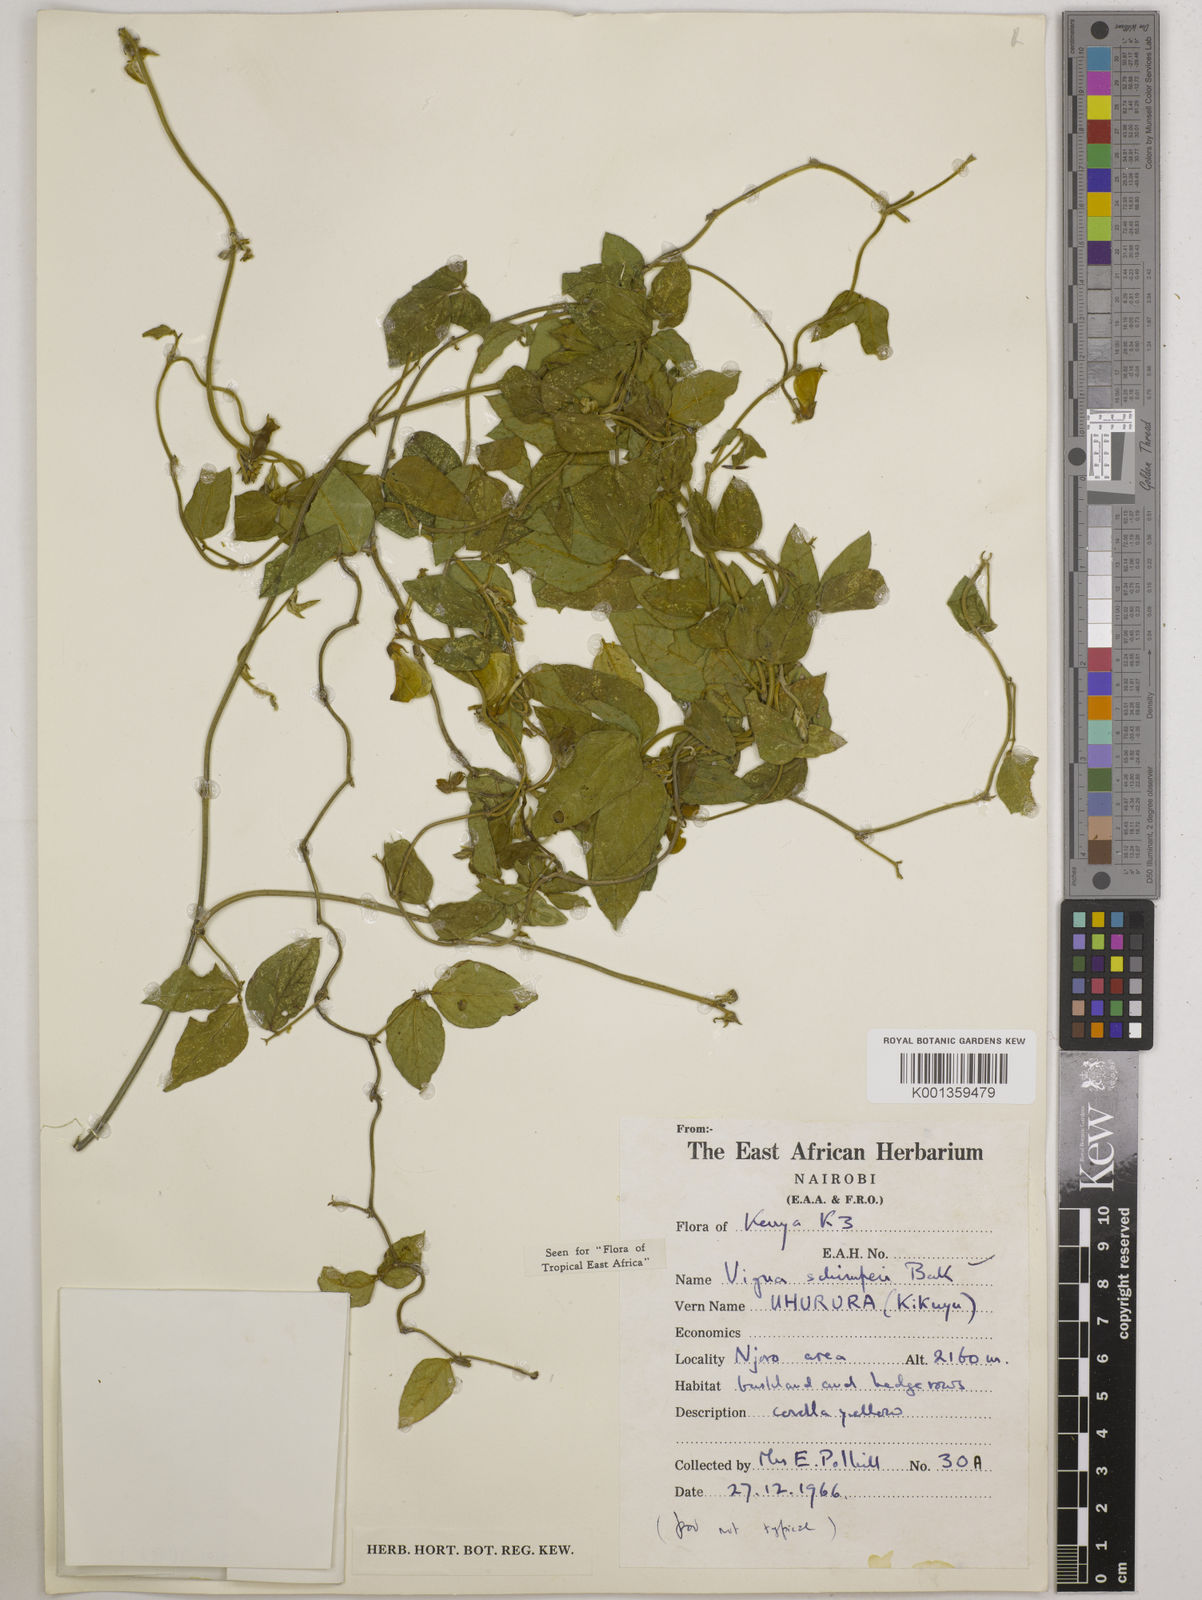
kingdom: Plantae
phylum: Tracheophyta
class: Magnoliopsida
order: Fabales
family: Fabaceae
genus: Vigna
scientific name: Vigna schimperi
